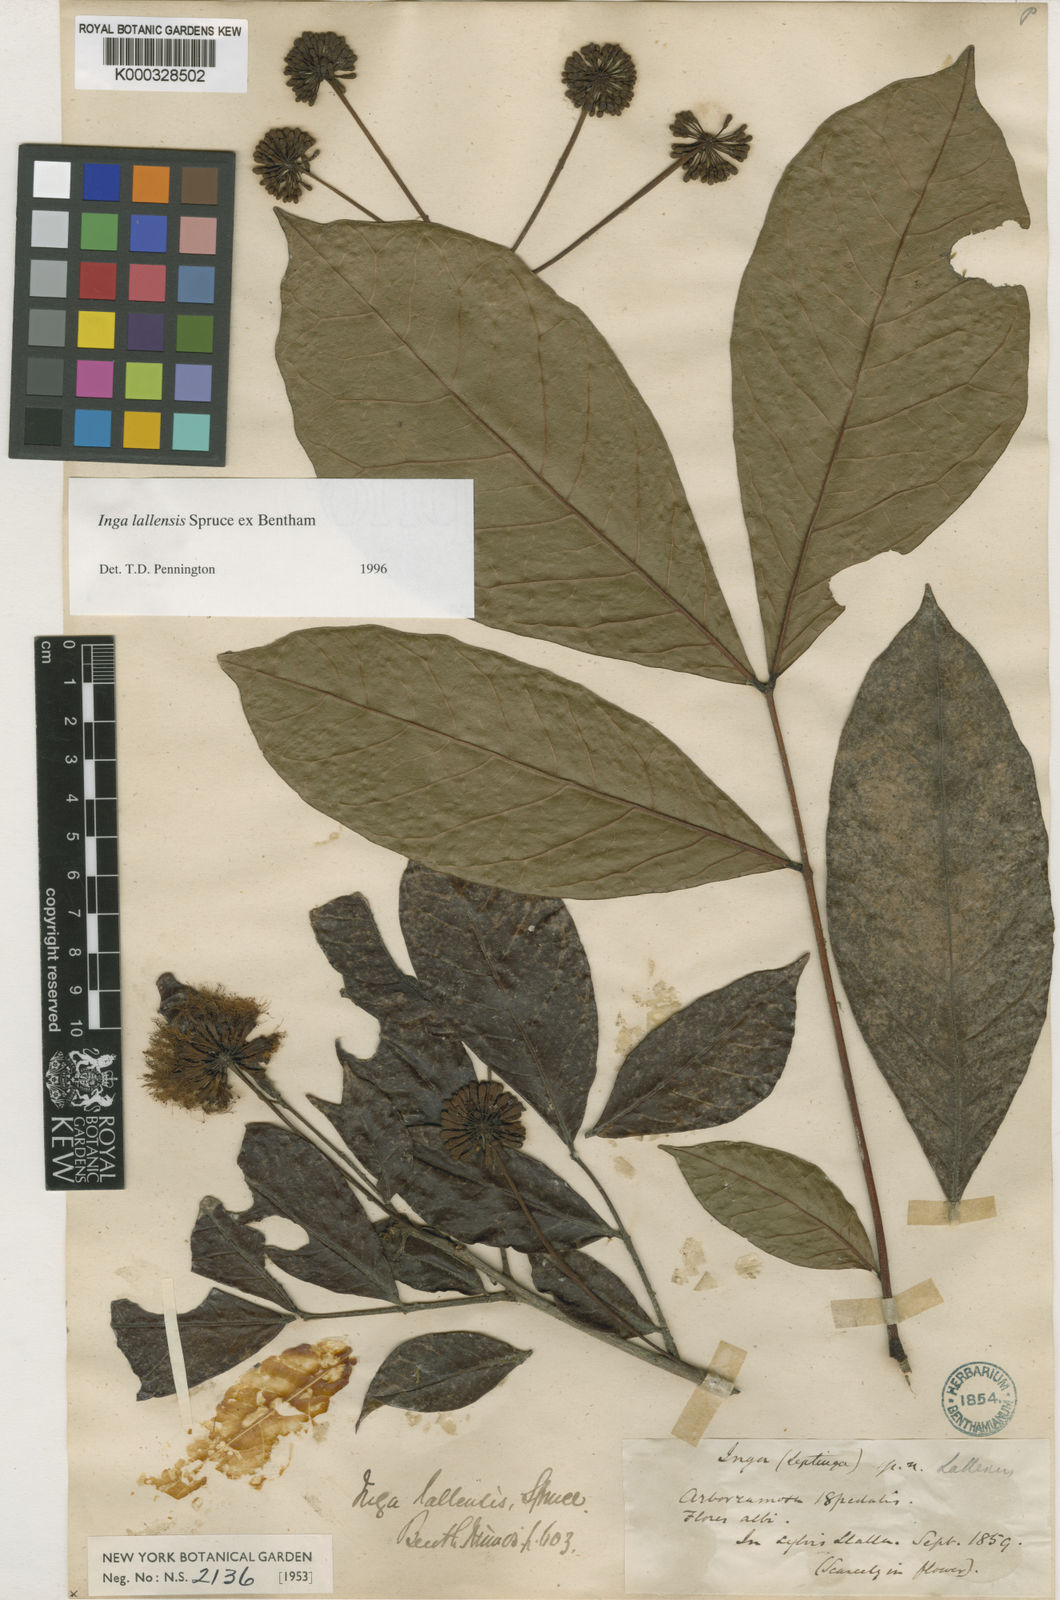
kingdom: Plantae
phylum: Tracheophyta
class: Magnoliopsida
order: Fabales
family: Fabaceae
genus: Inga
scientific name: Inga lallensis
